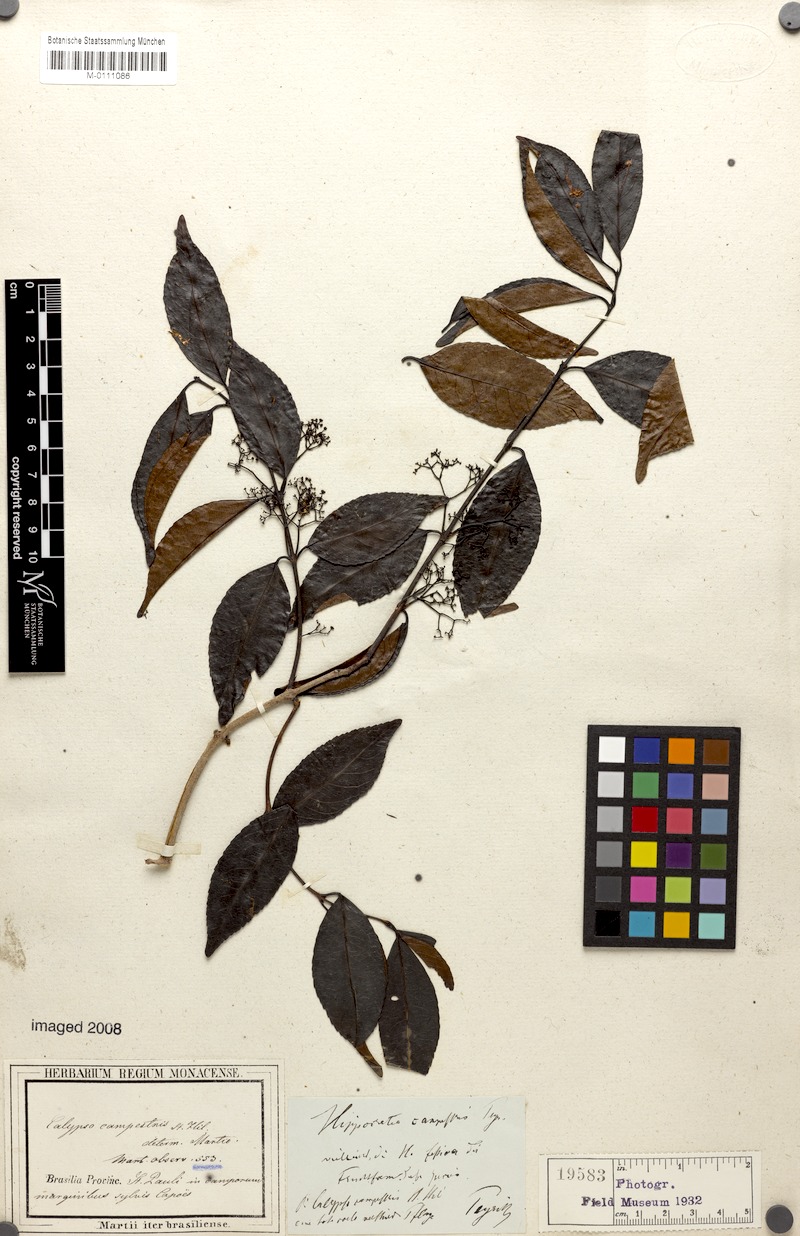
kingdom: Plantae
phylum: Tracheophyta
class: Magnoliopsida
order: Celastrales
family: Celastraceae
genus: Elachyptera
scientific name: Elachyptera festiva
